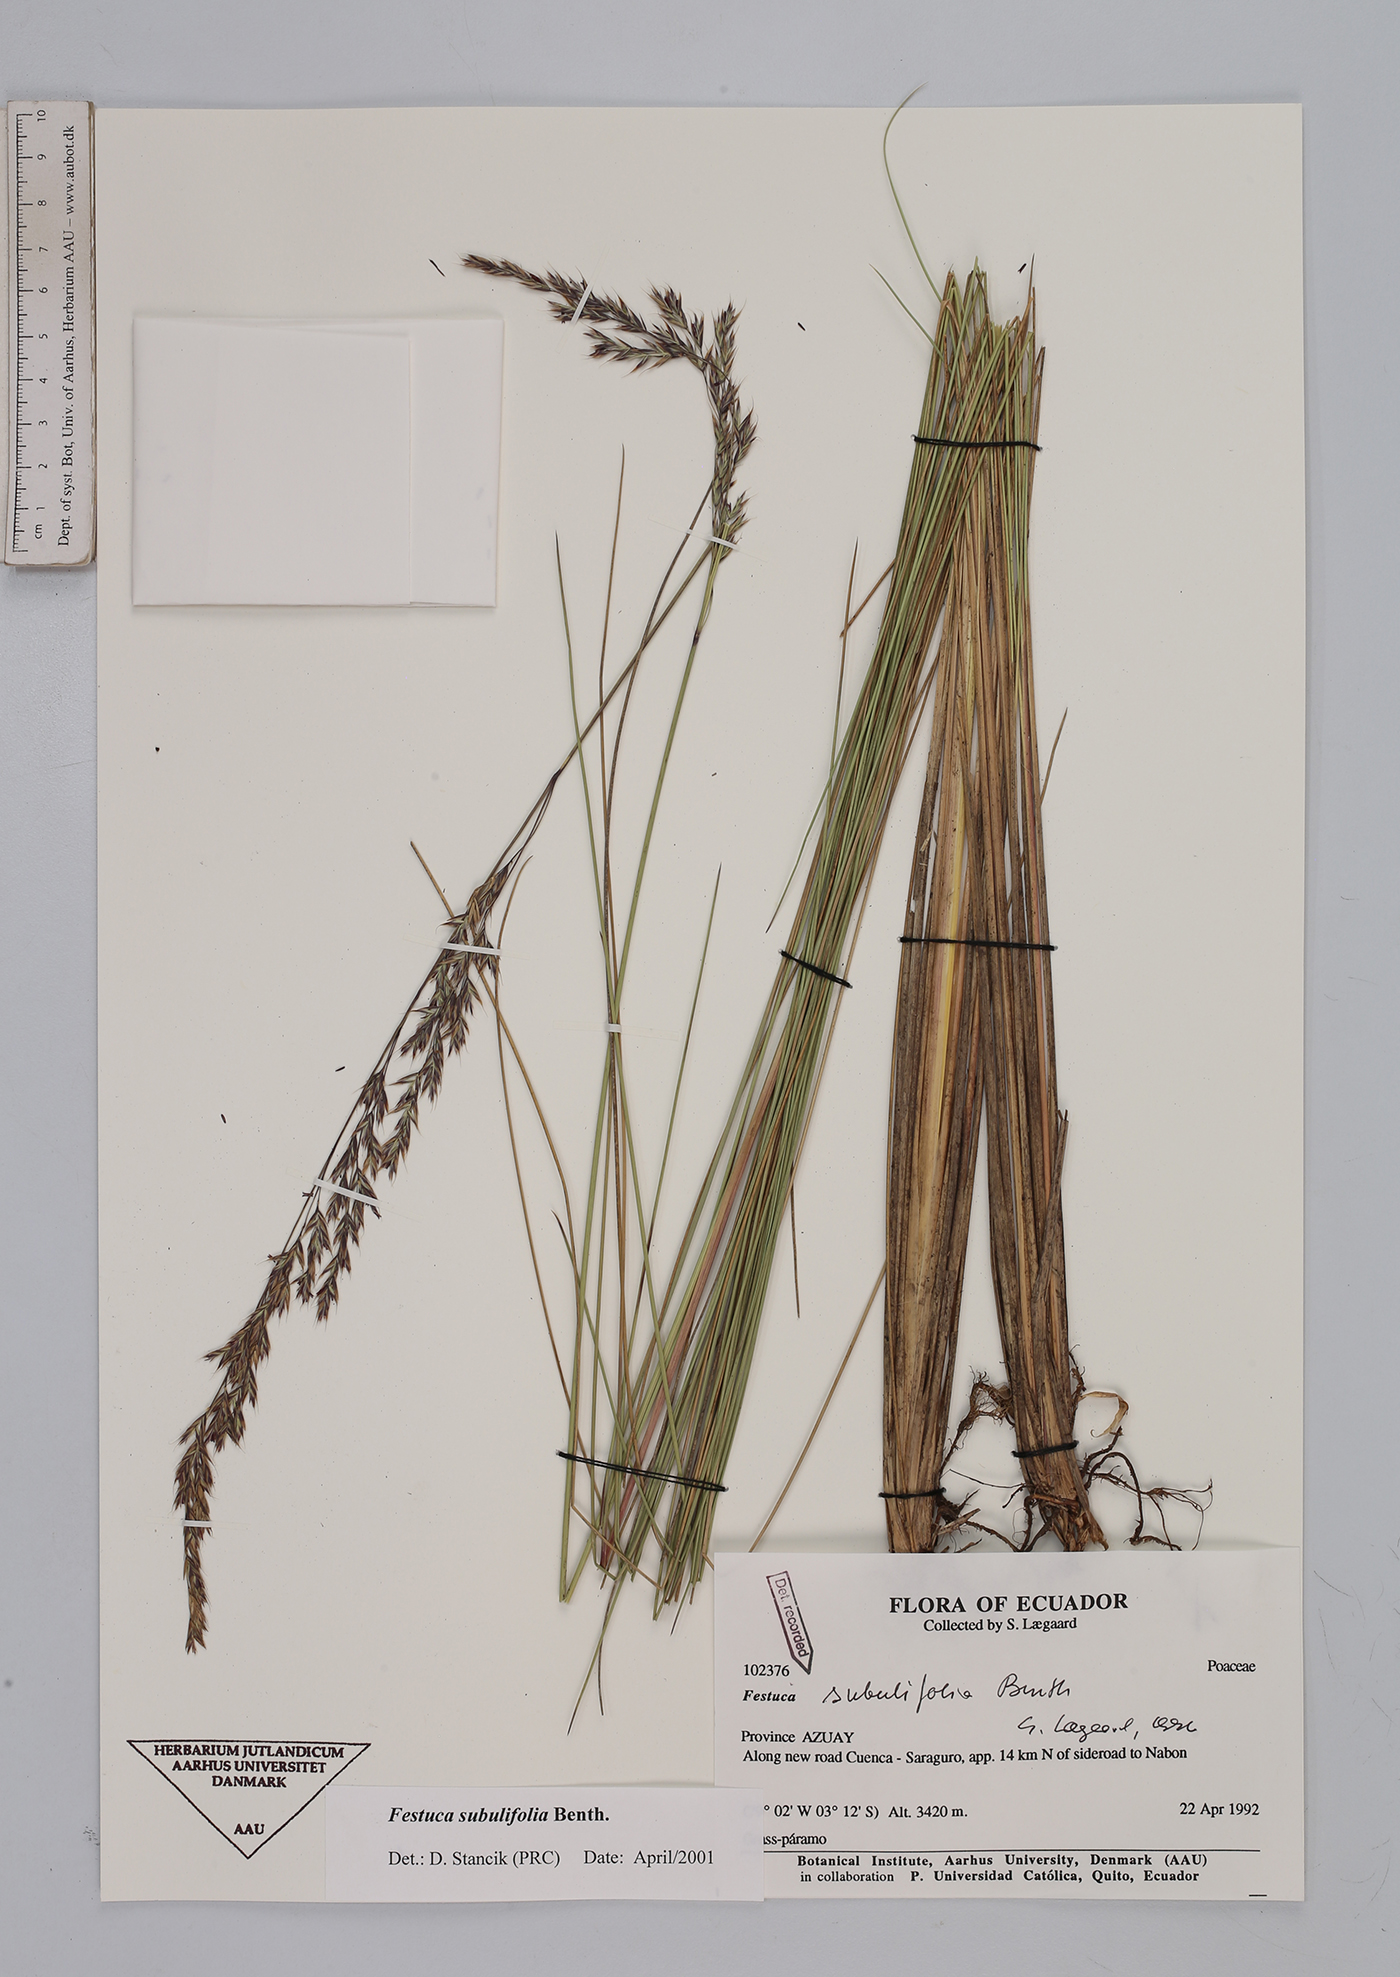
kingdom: Plantae
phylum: Tracheophyta
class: Liliopsida
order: Poales
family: Poaceae
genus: Festuca
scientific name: Festuca subulifolia
